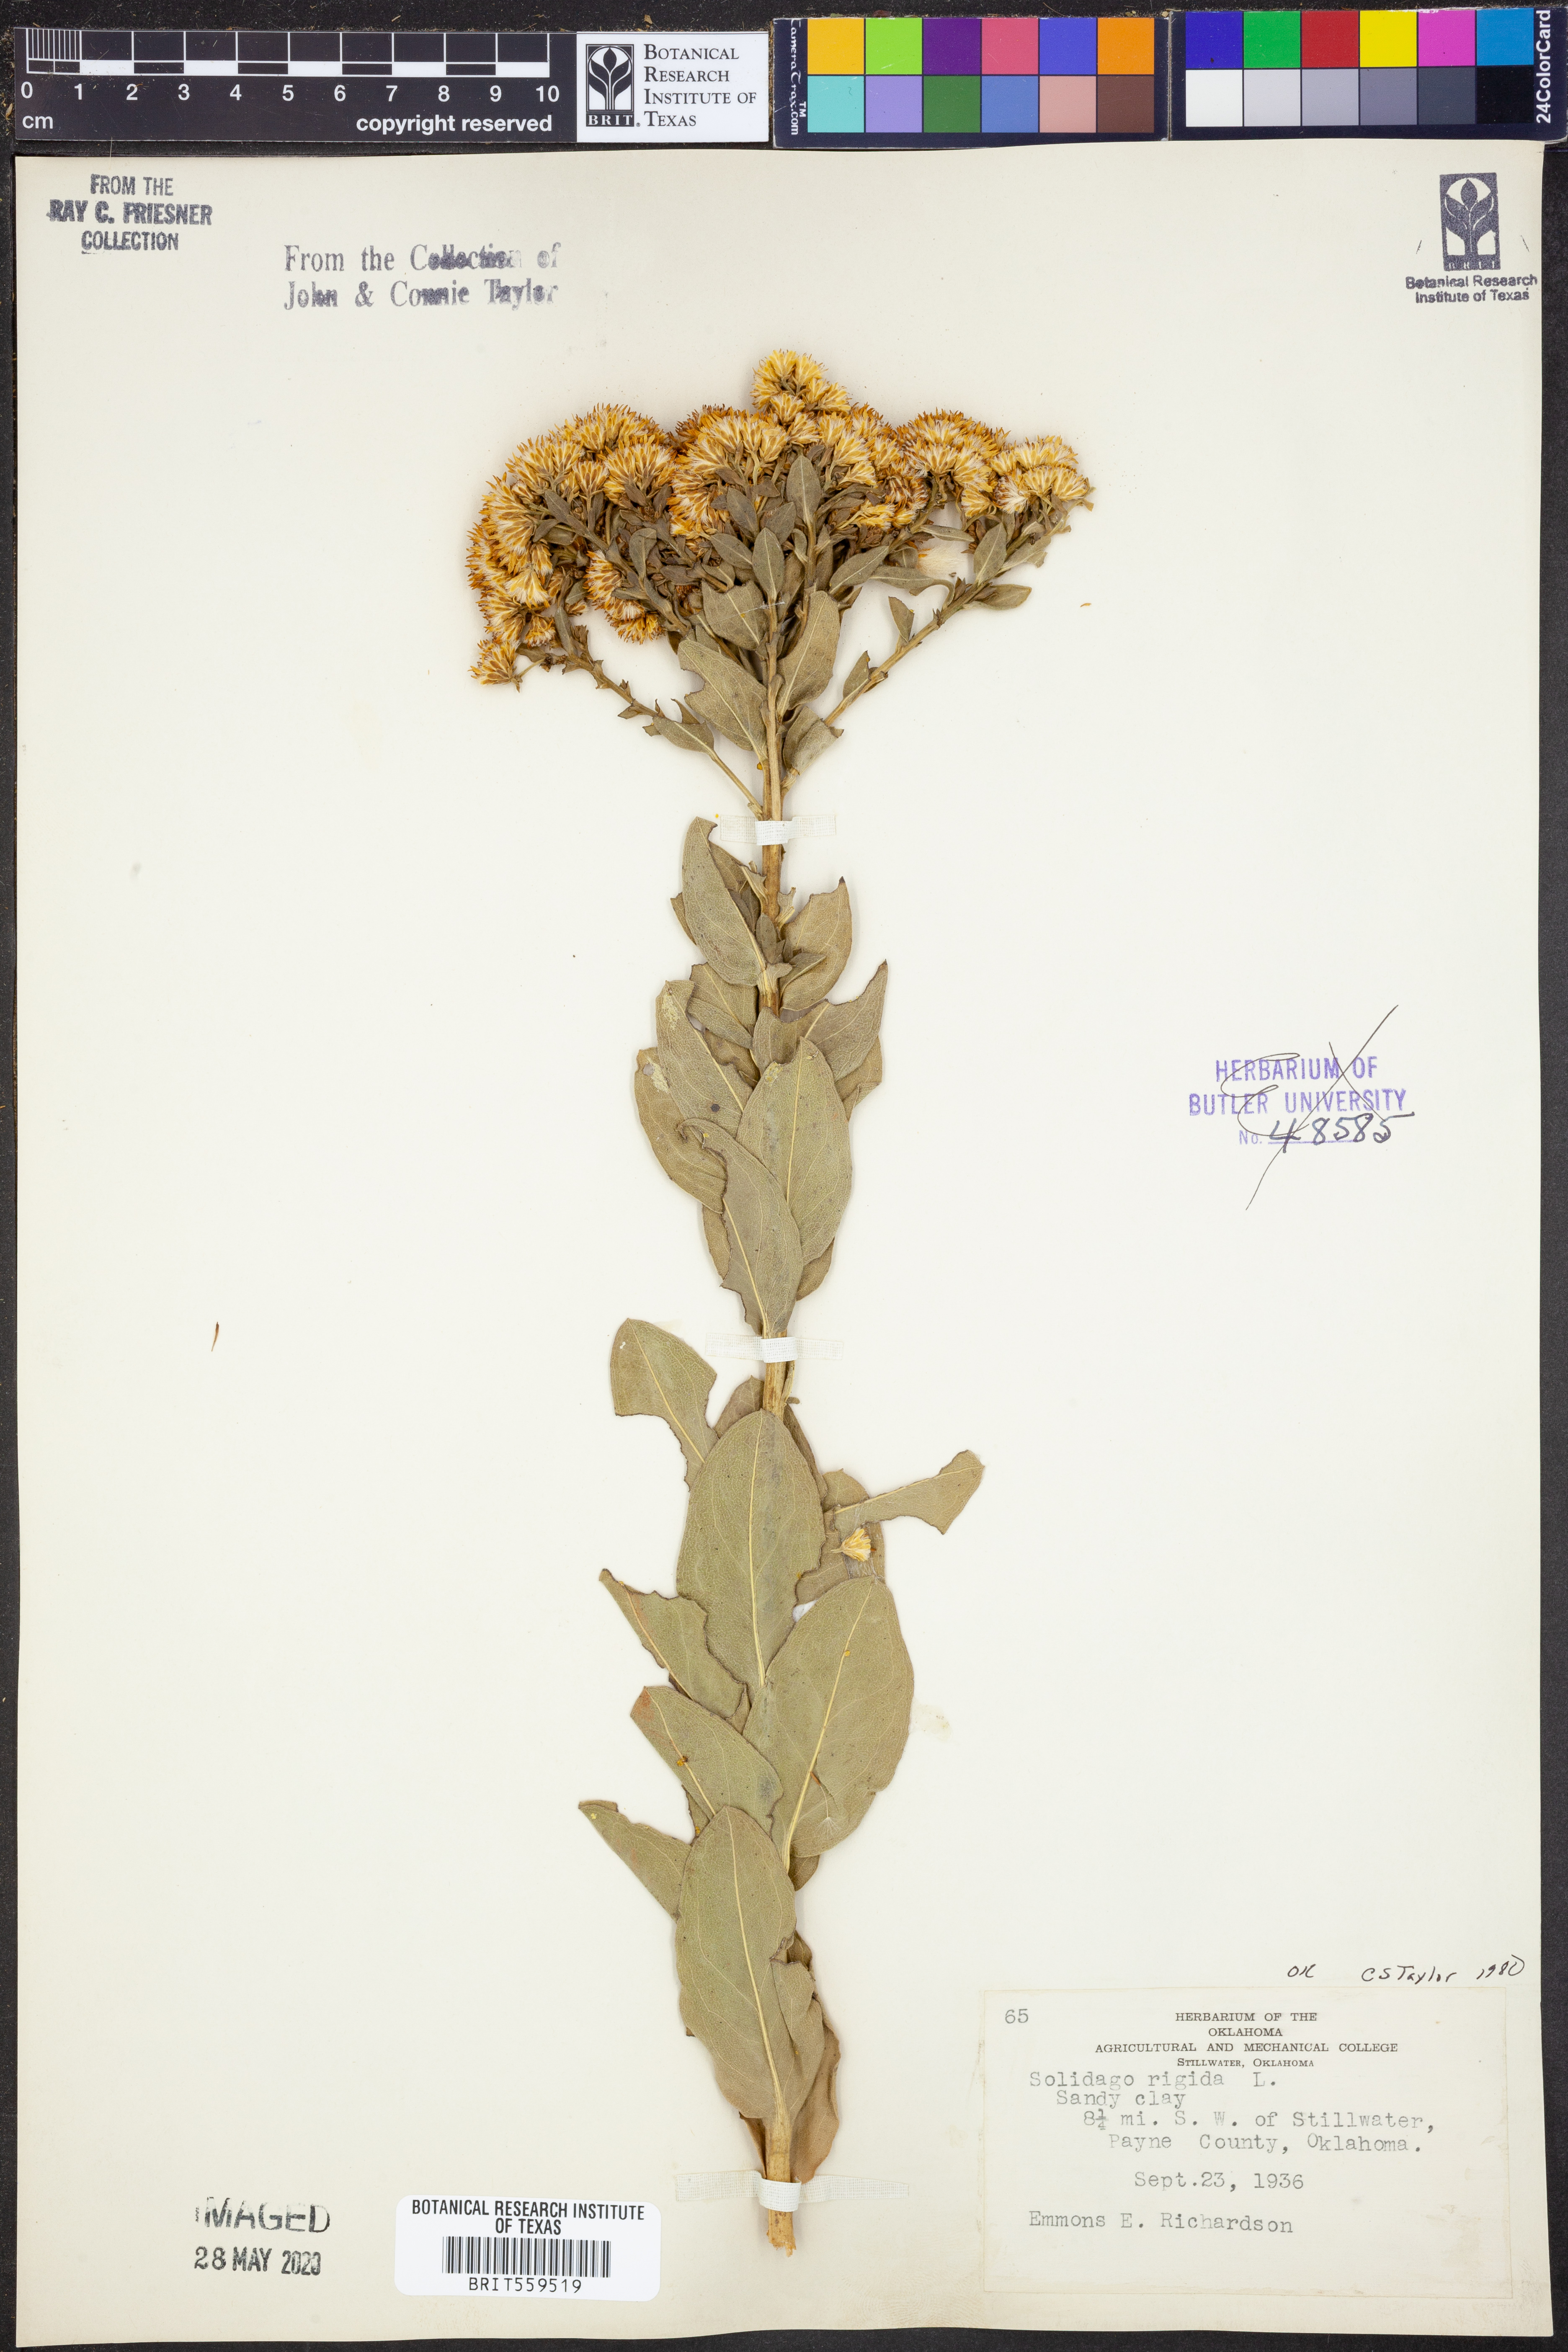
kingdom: Plantae
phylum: Tracheophyta
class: Magnoliopsida
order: Asterales
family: Asteraceae
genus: Solidago
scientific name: Solidago rigida
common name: Rigid goldenrod
